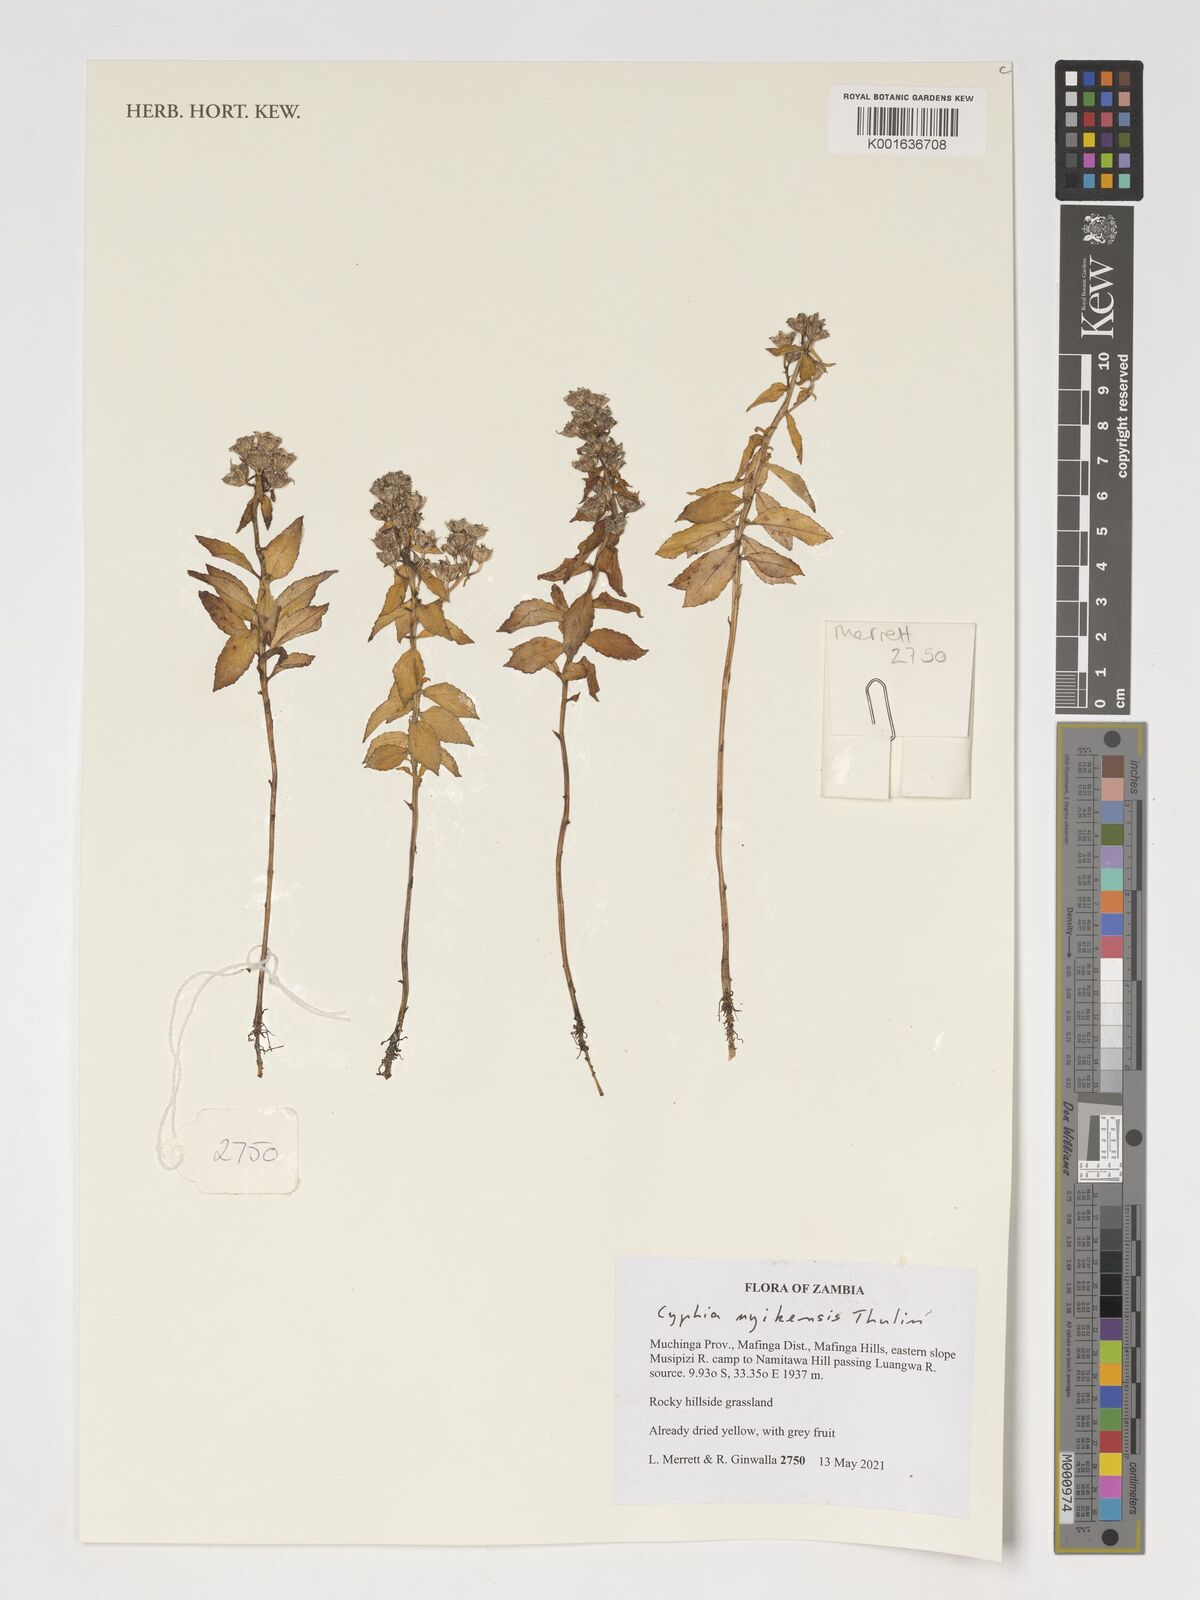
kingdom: Plantae
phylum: Tracheophyta
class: Magnoliopsida
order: Asterales
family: Campanulaceae
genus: Cyphia
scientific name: Cyphia nyikensis
